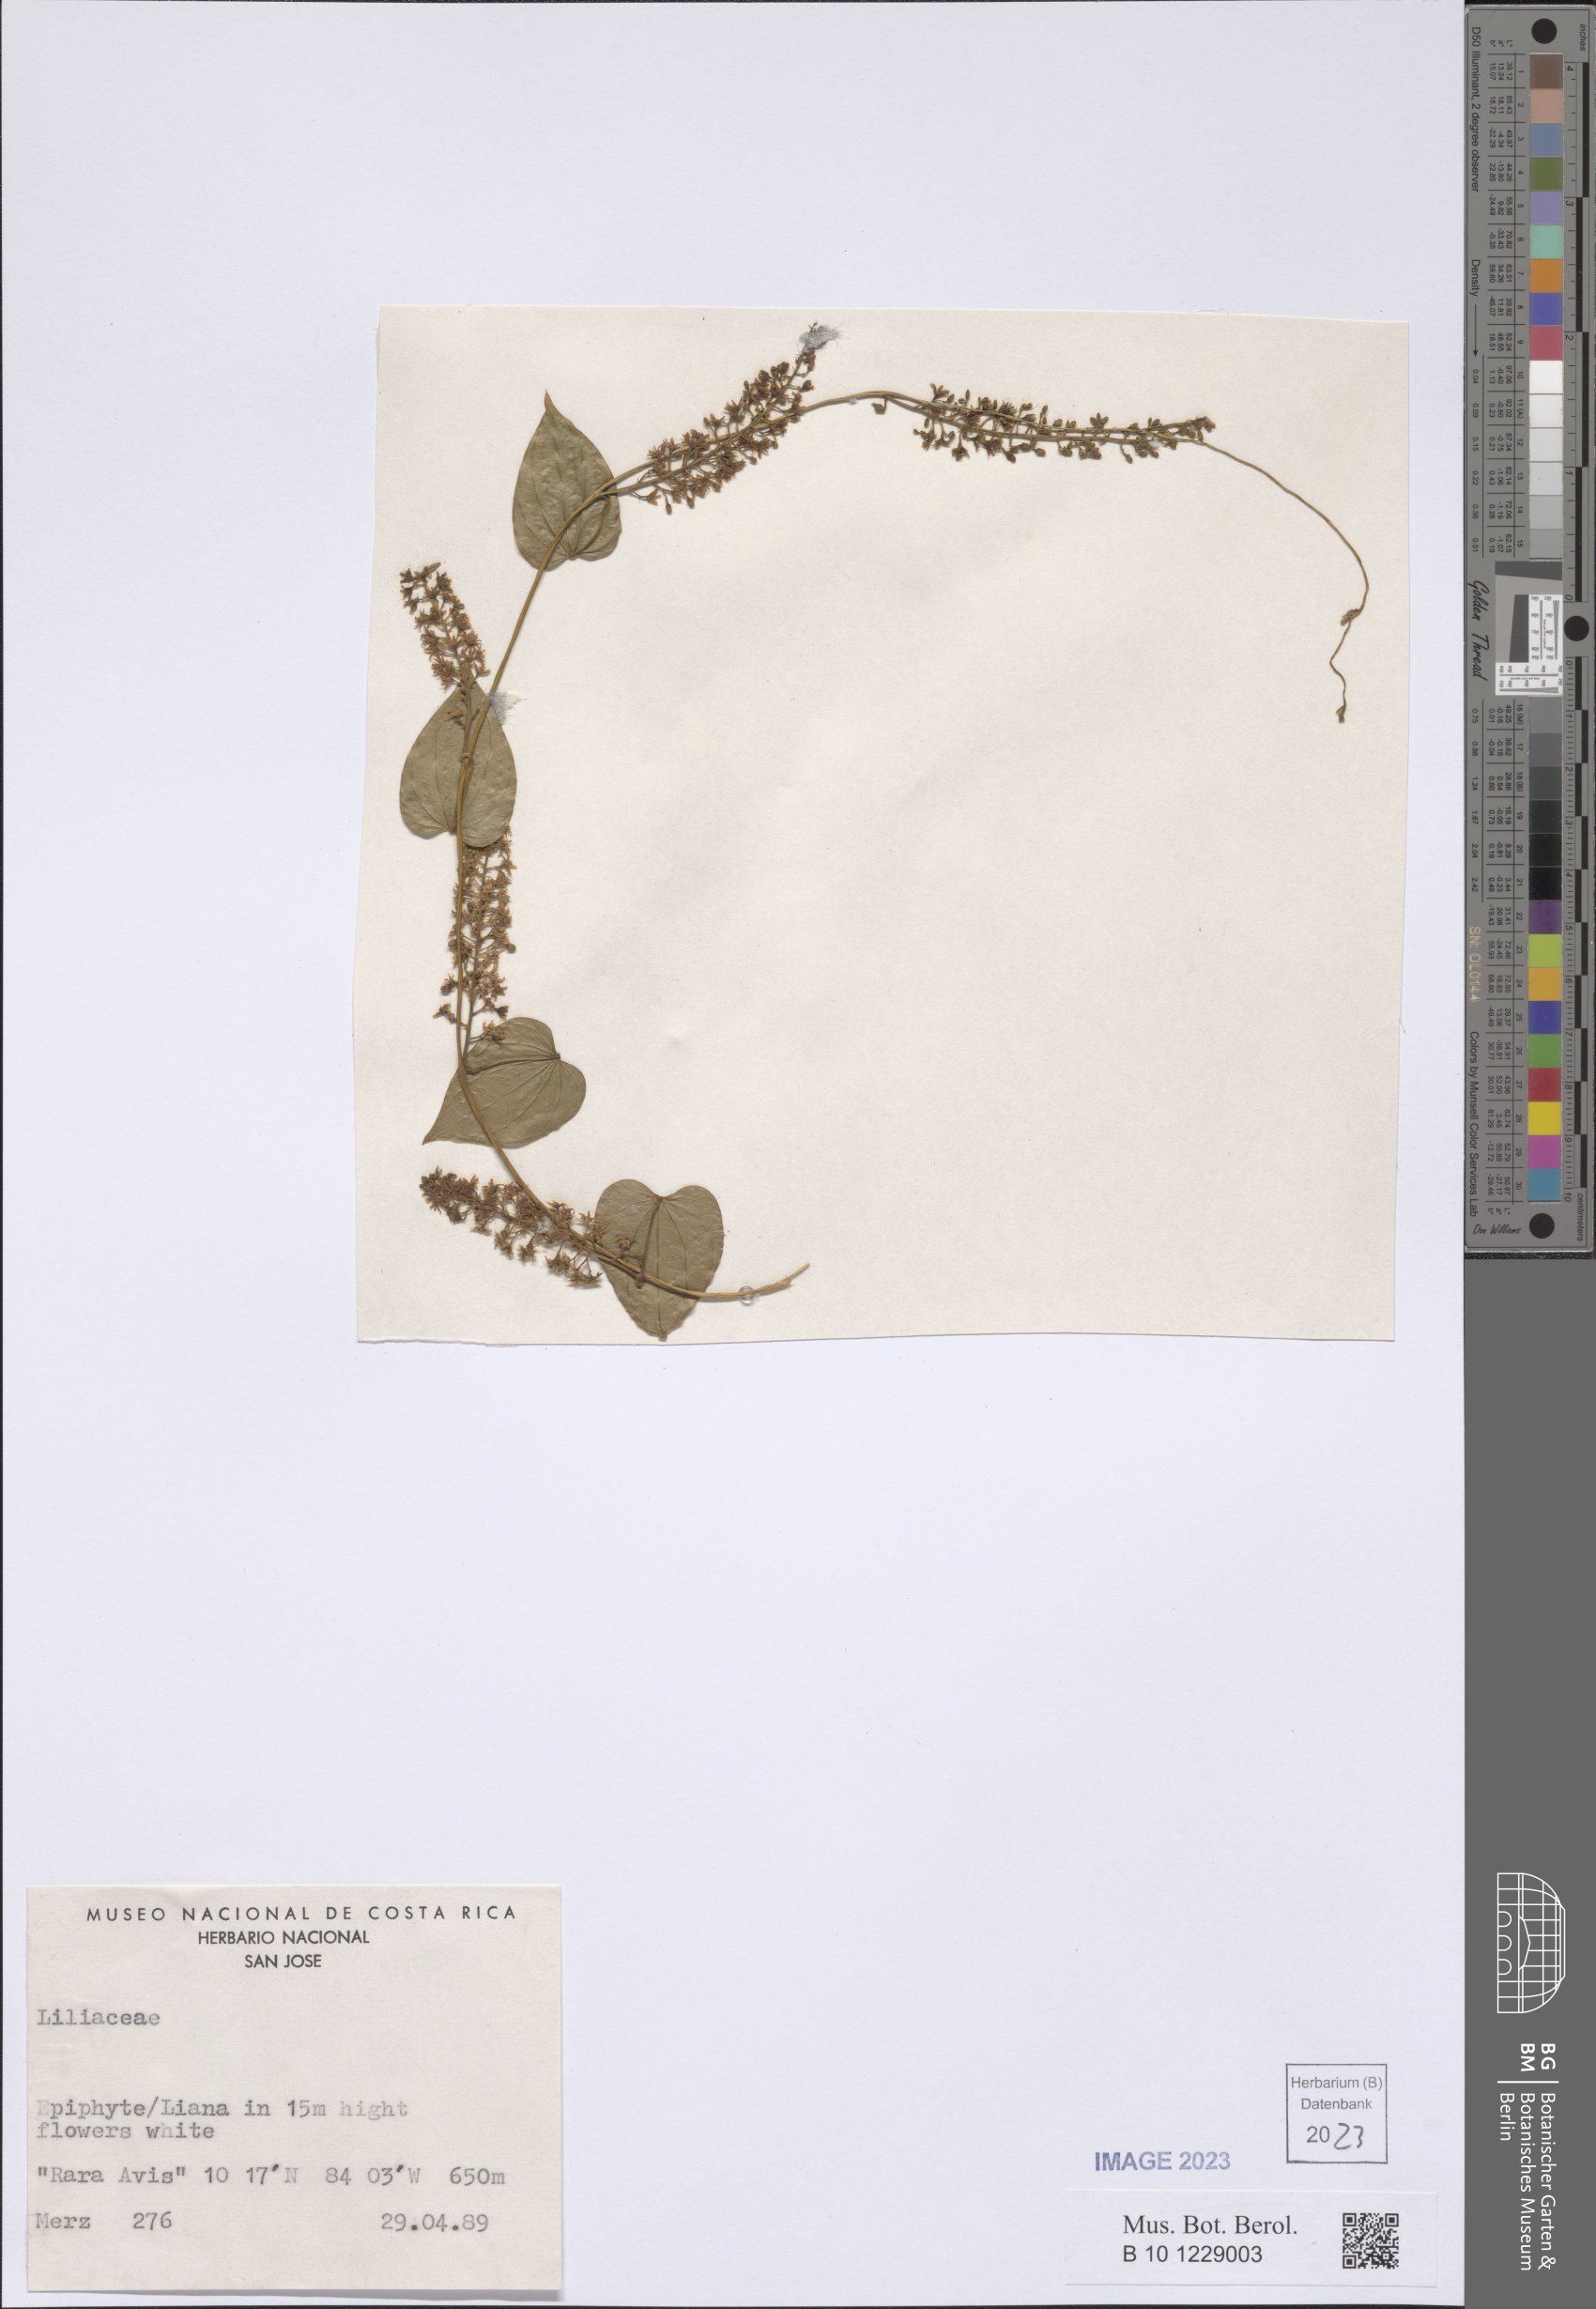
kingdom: Plantae
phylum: Tracheophyta
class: Liliopsida
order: Liliales
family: Liliaceae
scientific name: Liliaceae
